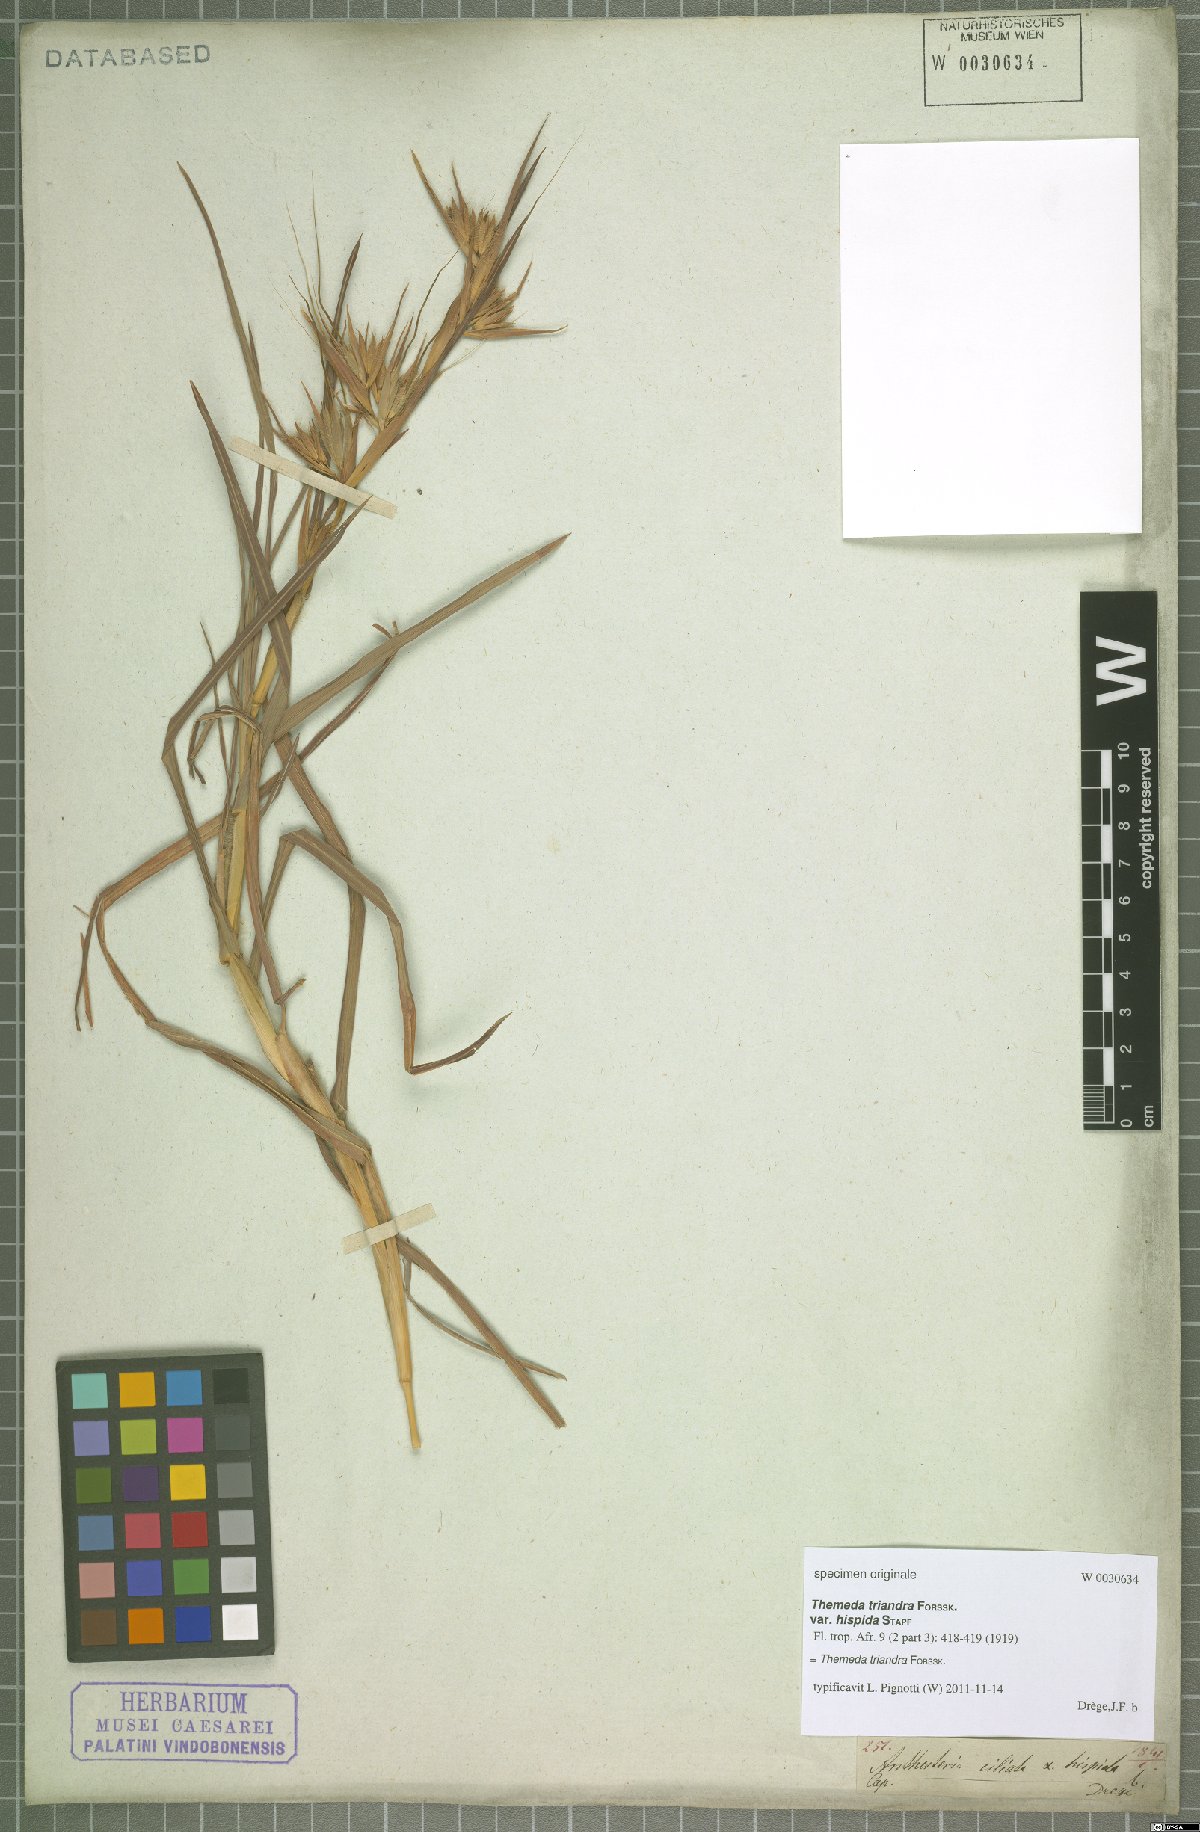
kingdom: Plantae
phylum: Tracheophyta
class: Liliopsida
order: Poales
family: Poaceae
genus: Themeda
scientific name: Themeda triandra
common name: Kangaroo grass
